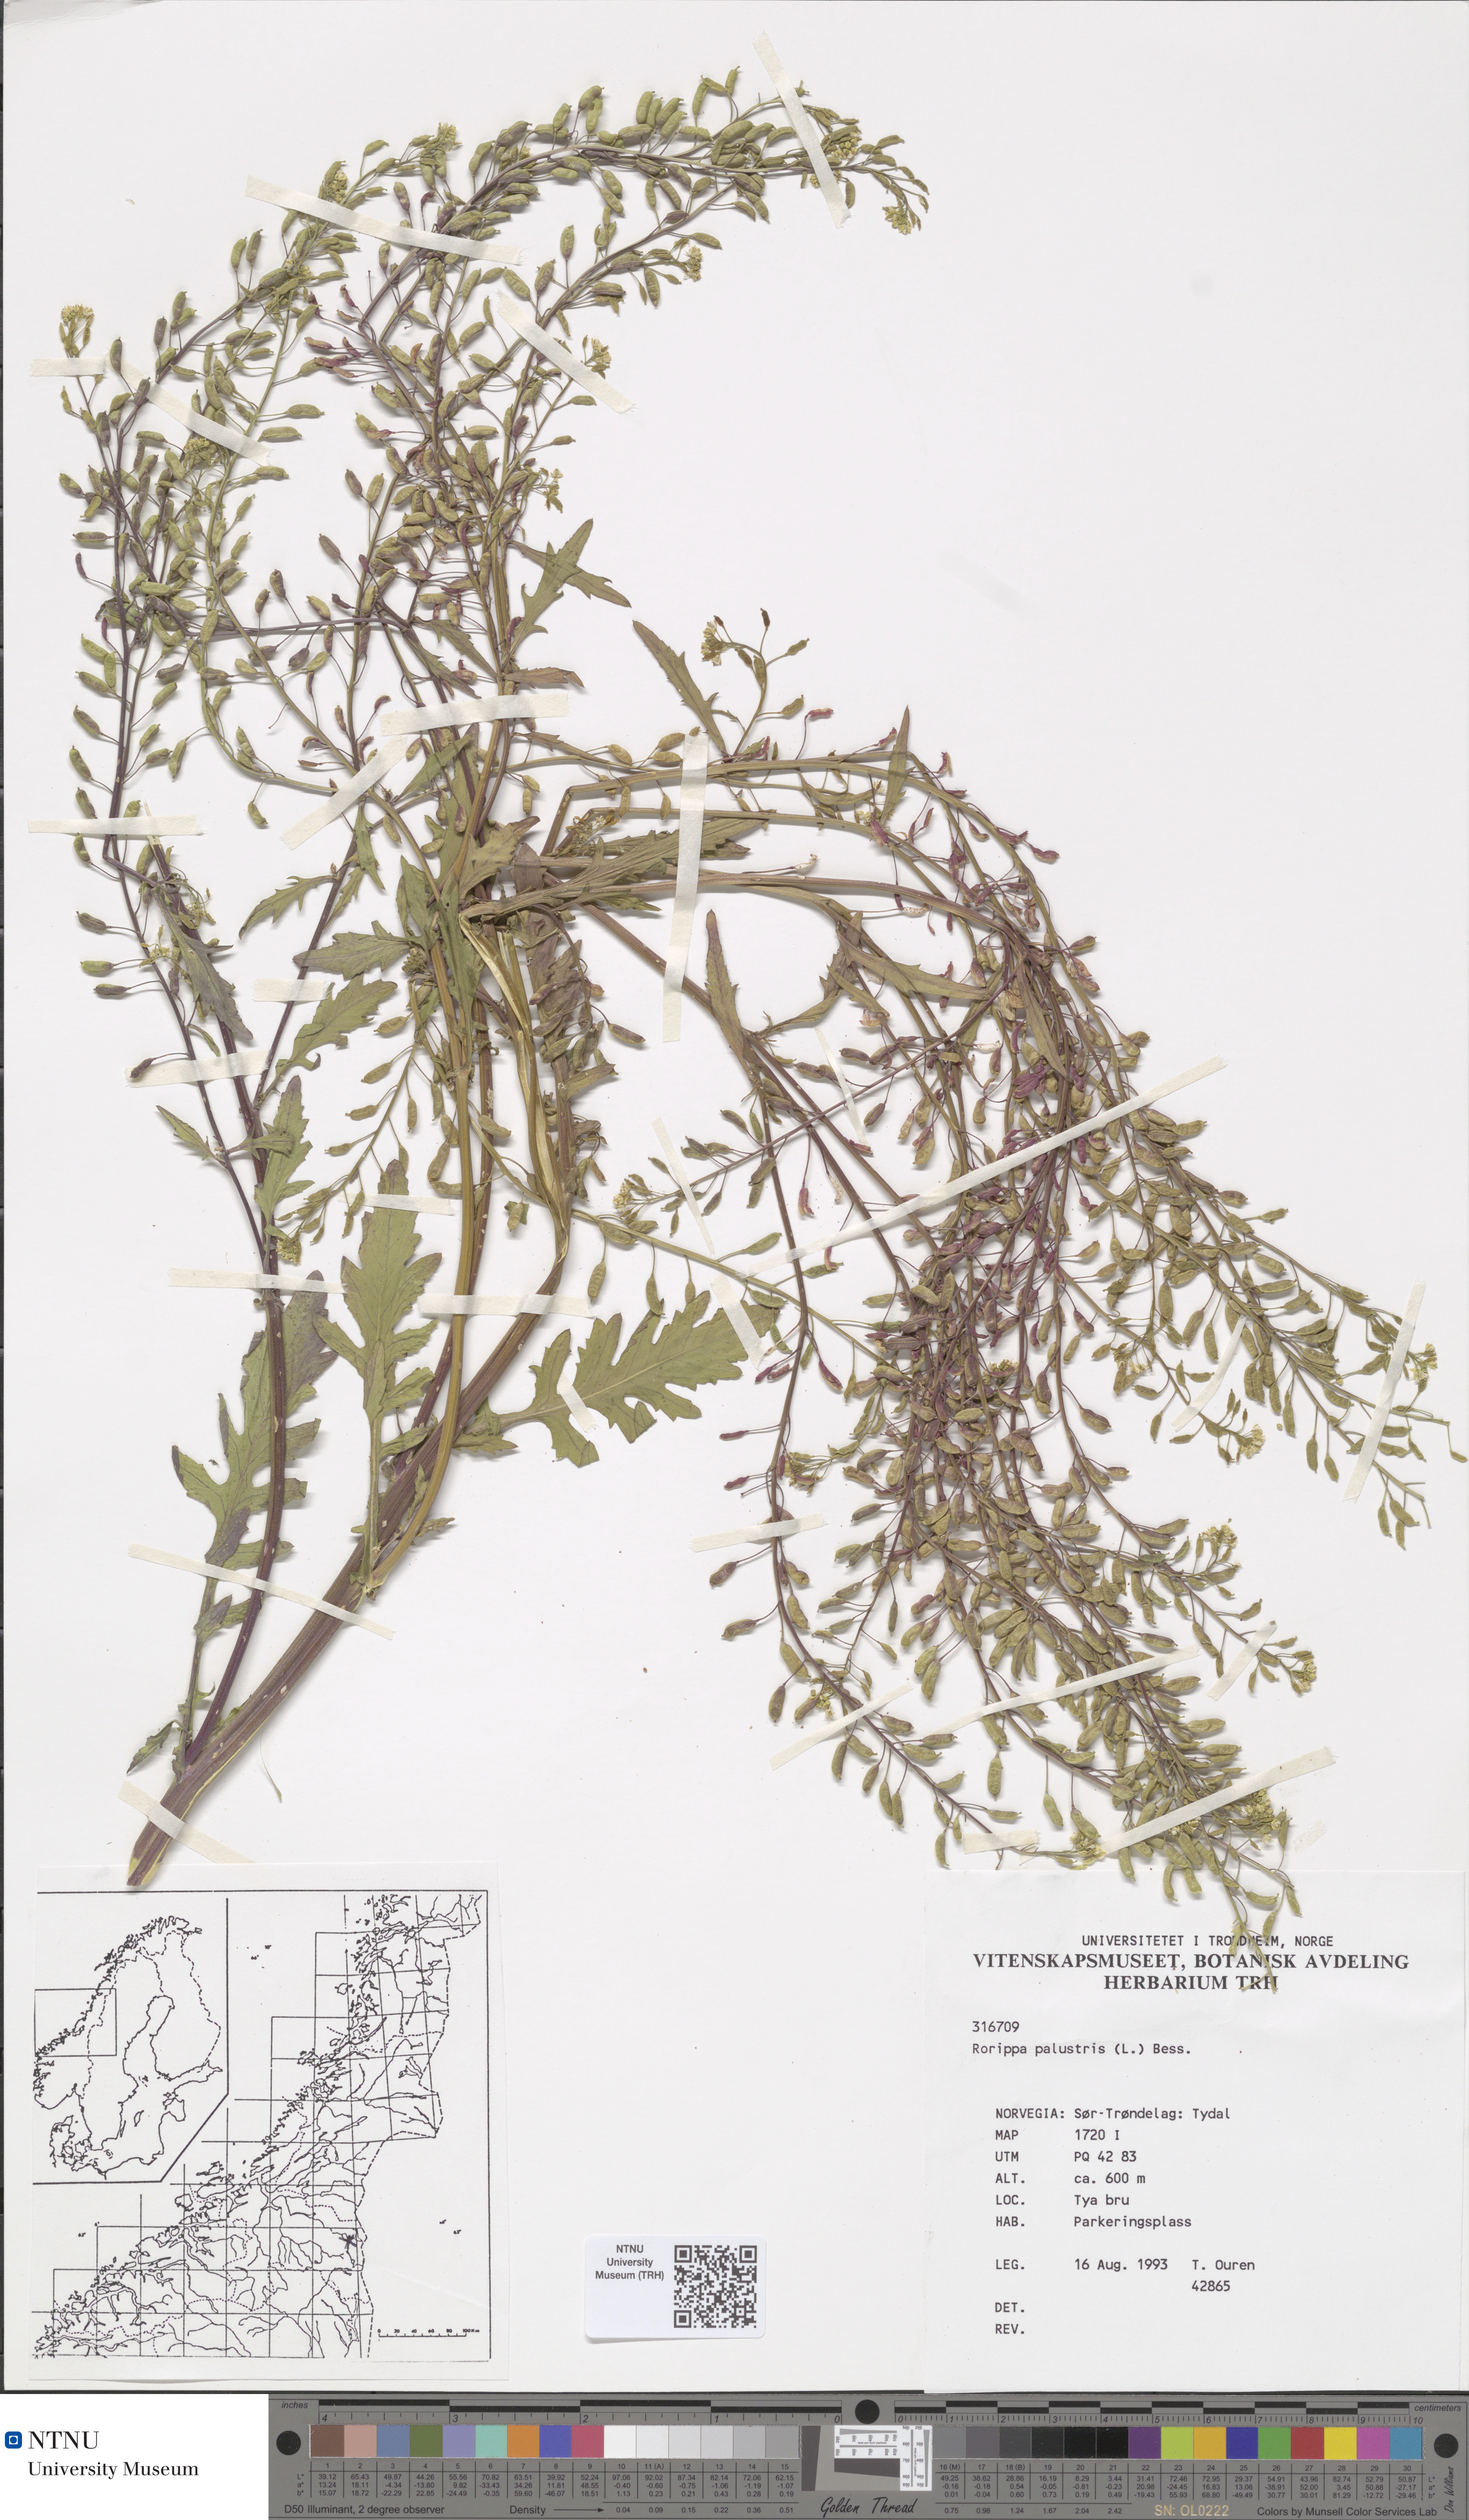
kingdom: Plantae
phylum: Tracheophyta
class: Magnoliopsida
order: Brassicales
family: Brassicaceae
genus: Rorippa
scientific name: Rorippa palustris
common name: Marsh yellow-cress
